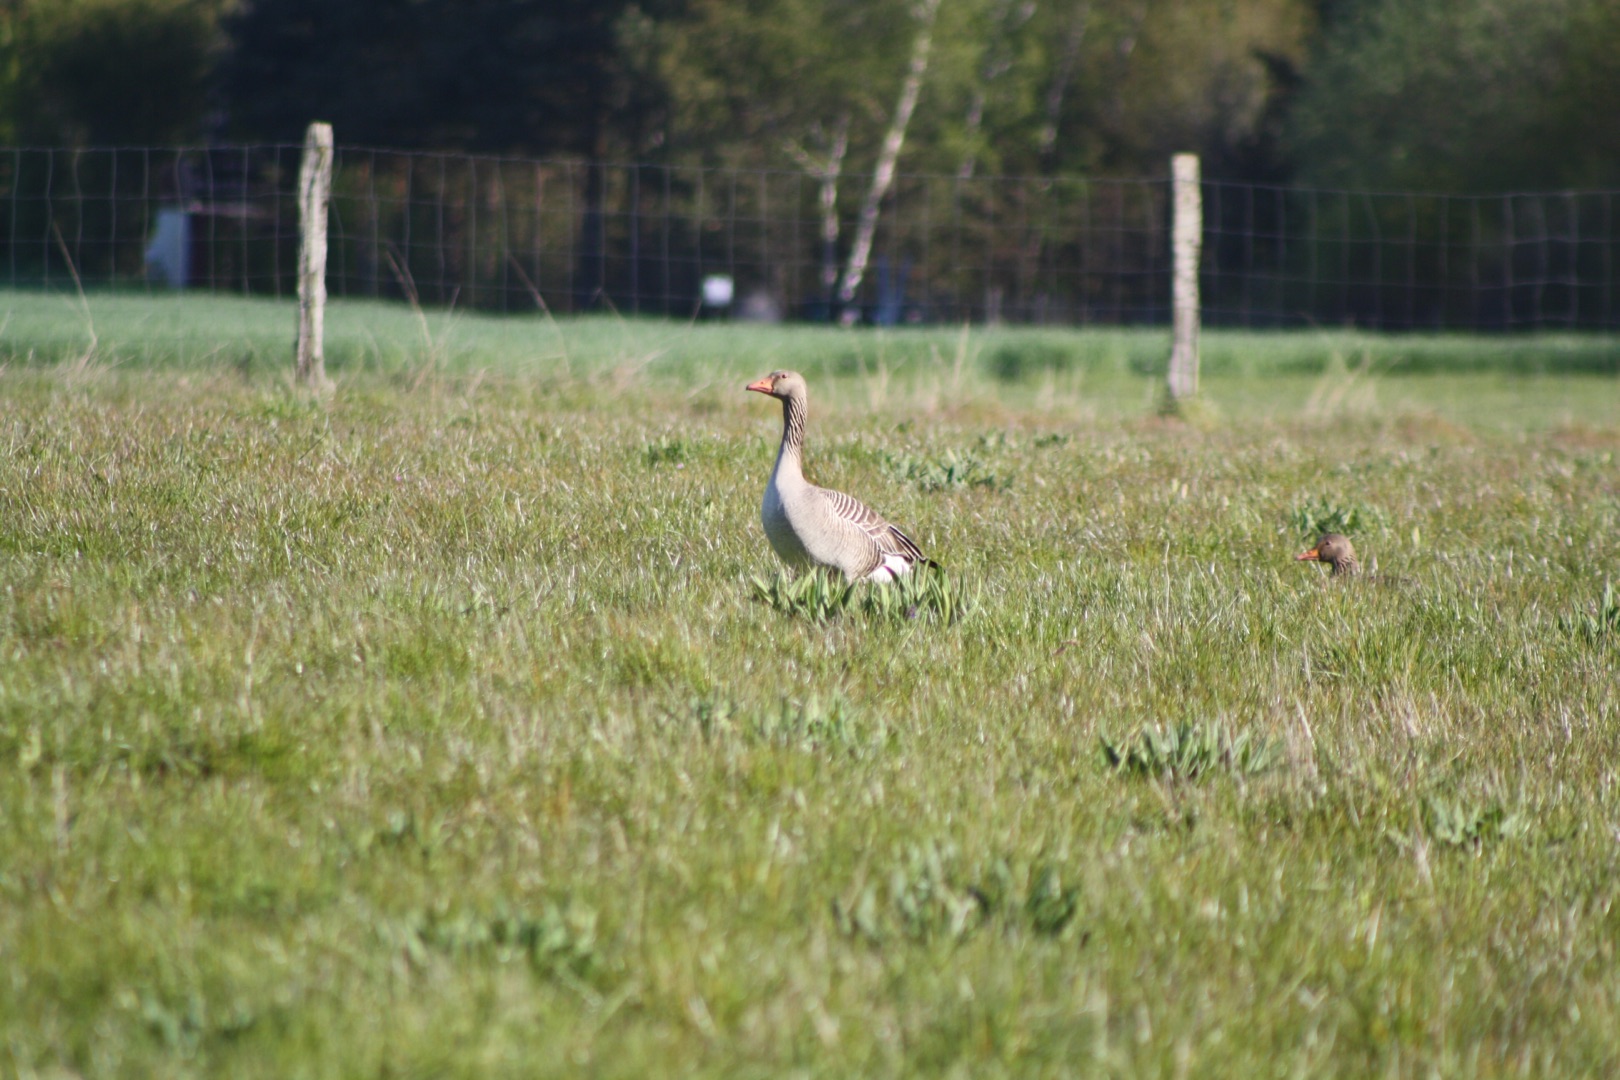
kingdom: Animalia
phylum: Chordata
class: Aves
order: Anseriformes
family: Anatidae
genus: Anser
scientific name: Anser anser
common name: Grågås
